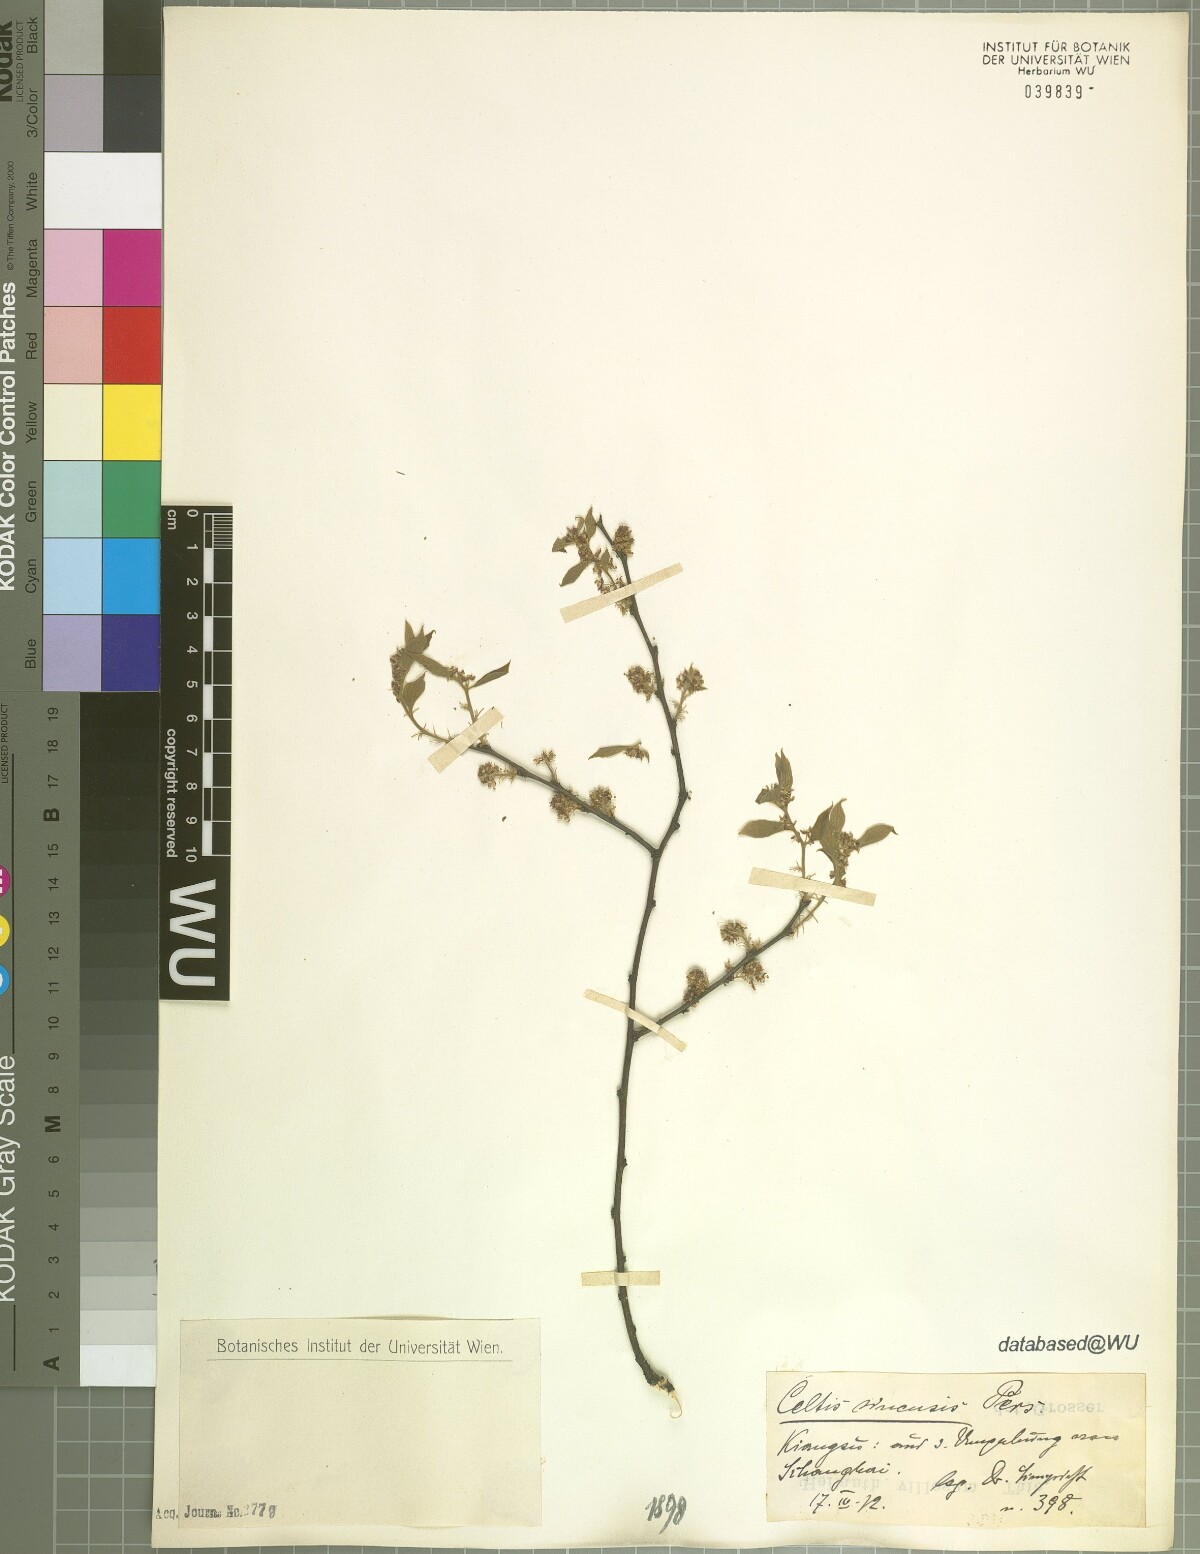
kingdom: Plantae
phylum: Tracheophyta
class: Magnoliopsida
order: Rosales
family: Cannabaceae
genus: Celtis
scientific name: Celtis sinensis
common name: Chinese hackberry
